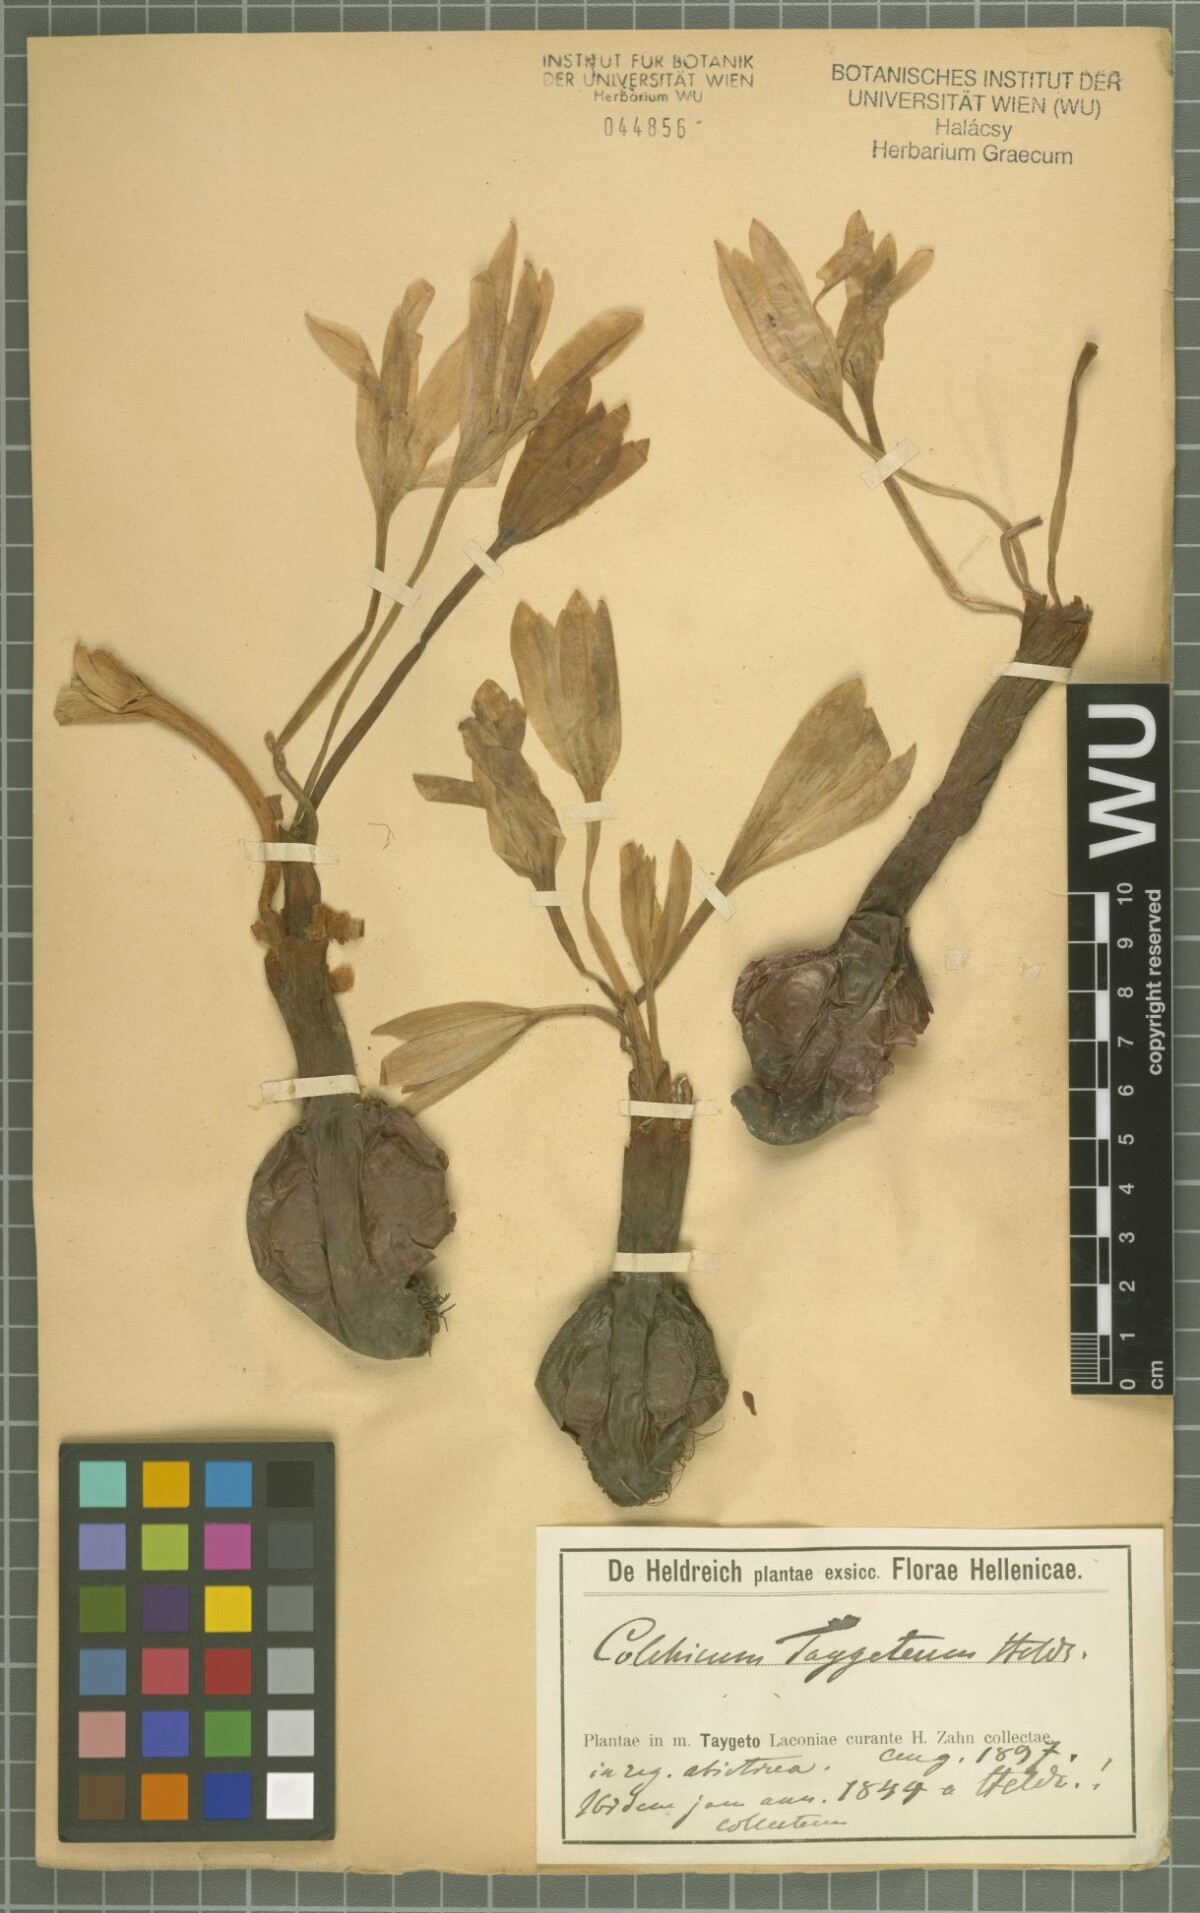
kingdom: Plantae
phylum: Tracheophyta
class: Liliopsida
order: Liliales
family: Colchicaceae
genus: Colchicum
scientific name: Colchicum graecum
